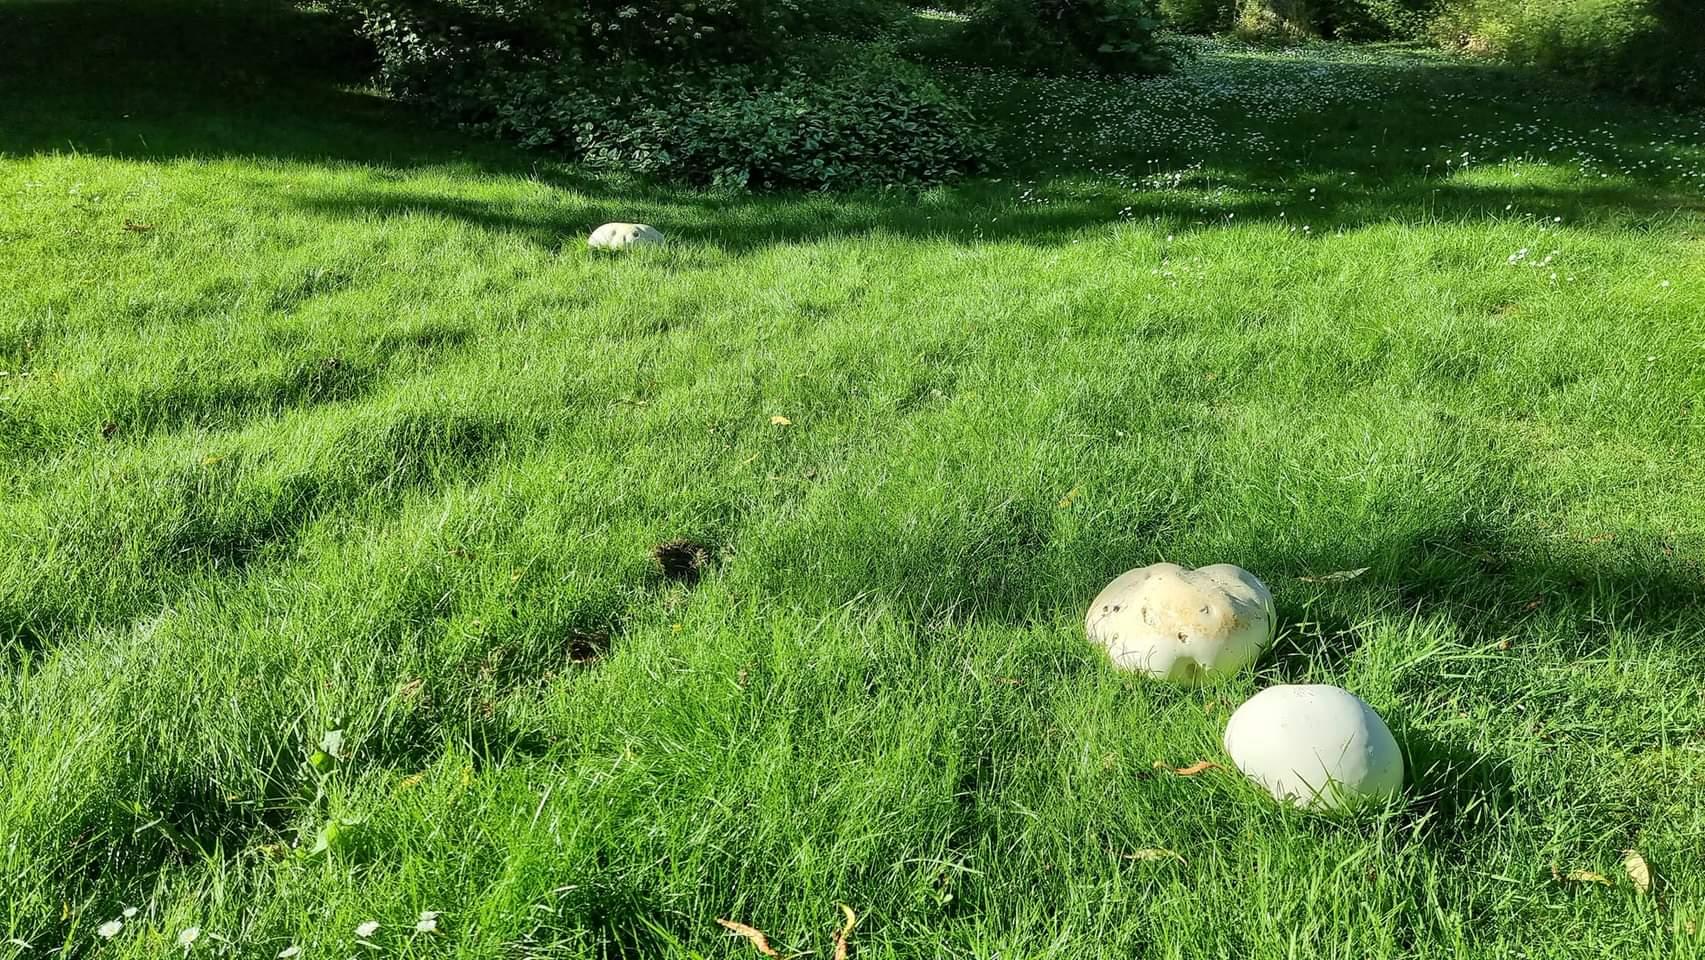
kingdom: Fungi
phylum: Basidiomycota
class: Agaricomycetes
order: Agaricales
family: Lycoperdaceae
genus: Calvatia
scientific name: Calvatia gigantea
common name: kæmpestøvbold
